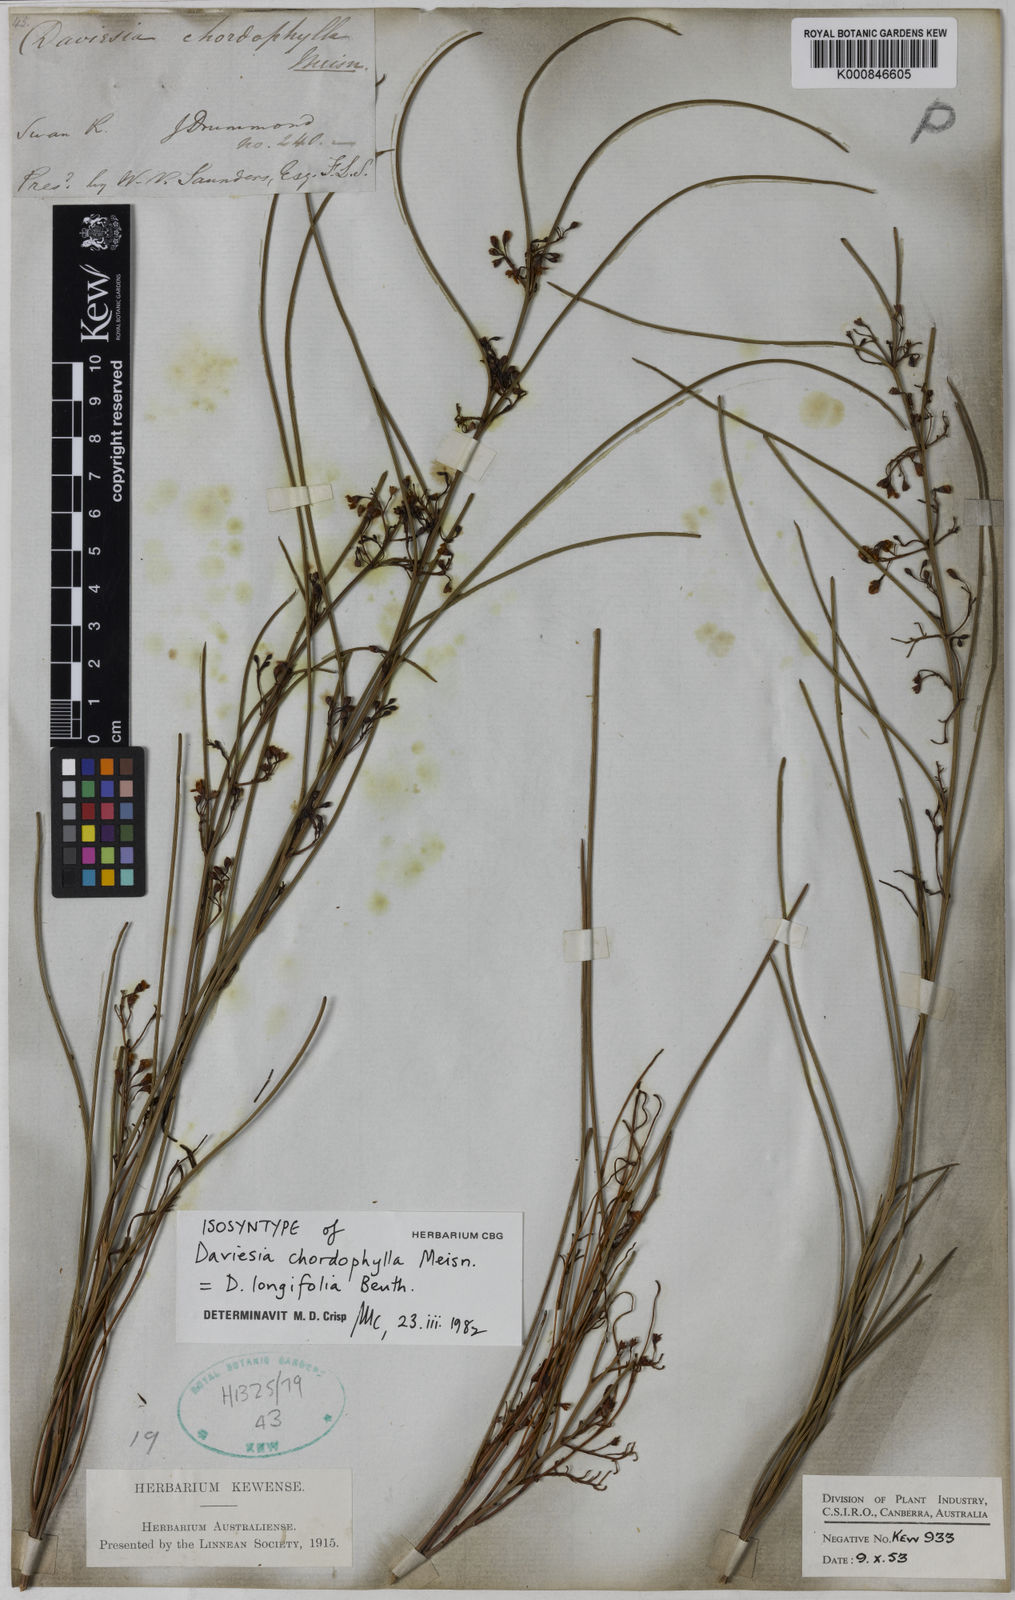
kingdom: Plantae
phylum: Tracheophyta
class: Magnoliopsida
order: Fabales
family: Fabaceae
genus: Daviesia
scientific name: Daviesia longifolia
